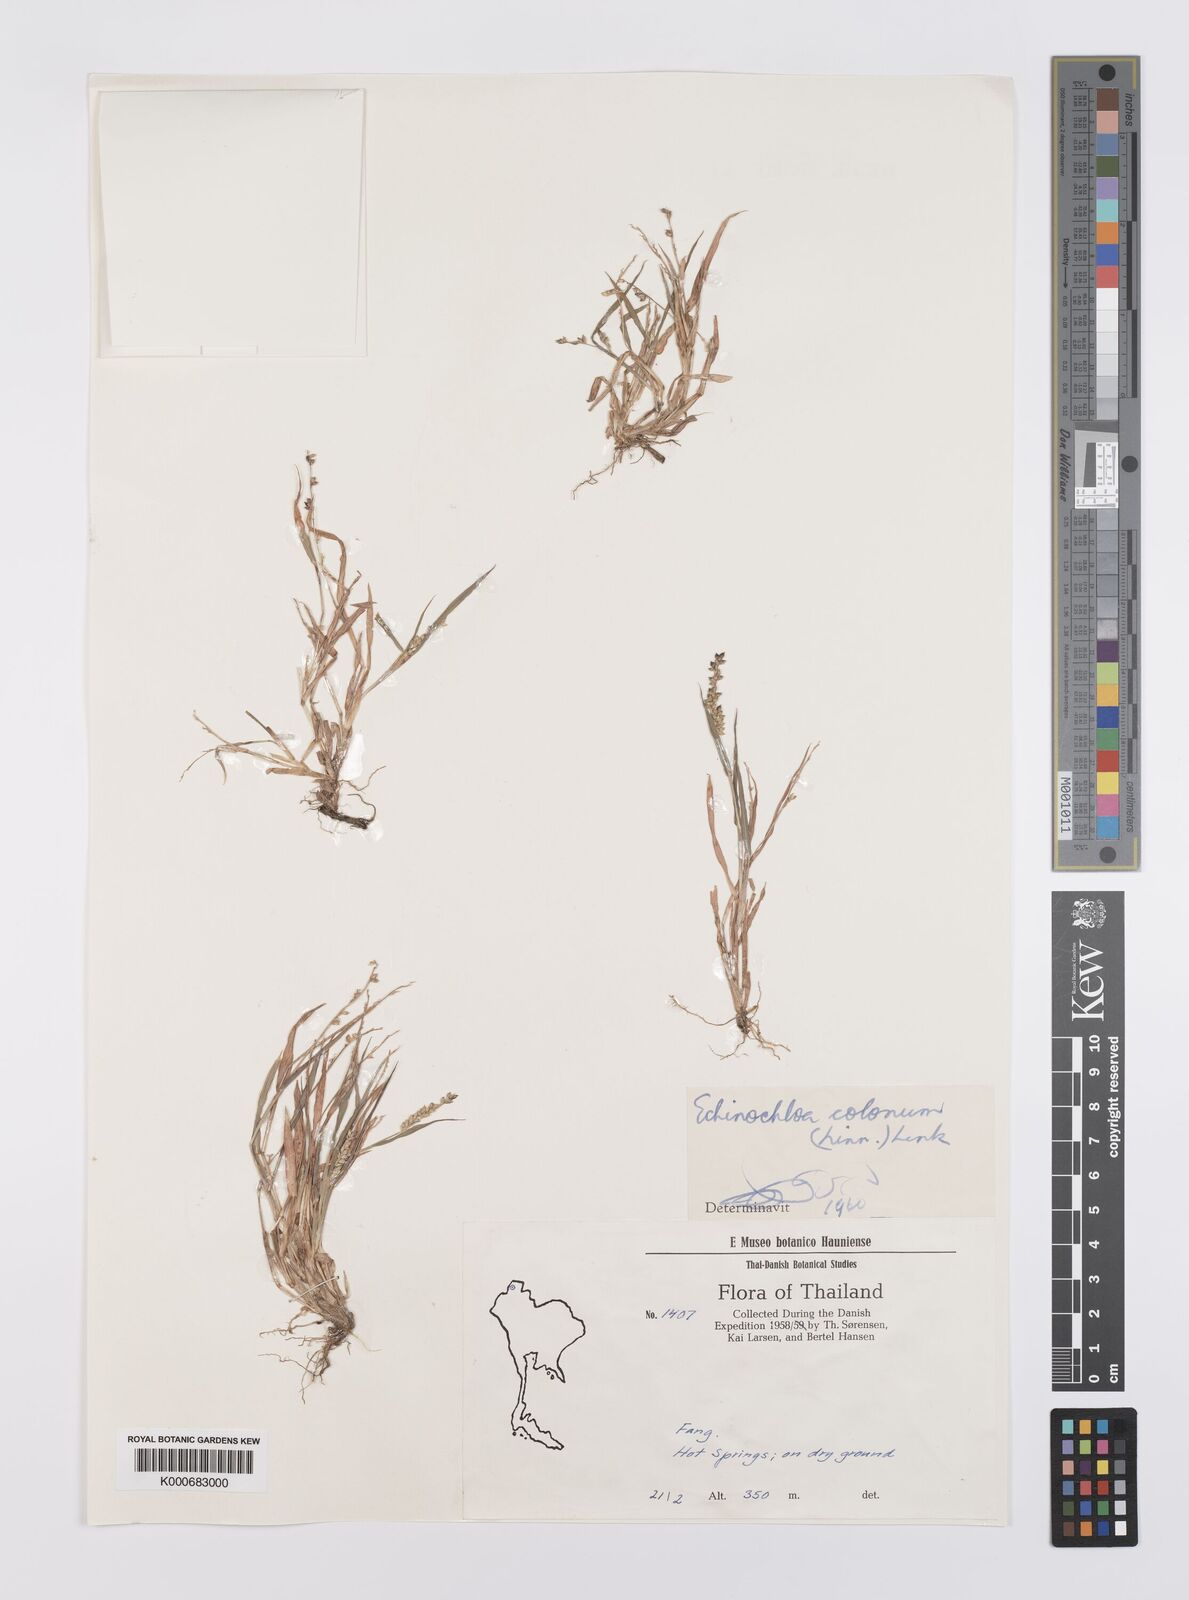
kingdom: Plantae
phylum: Tracheophyta
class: Liliopsida
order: Poales
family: Poaceae
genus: Echinochloa
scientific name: Echinochloa colonum
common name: Jungle rice
